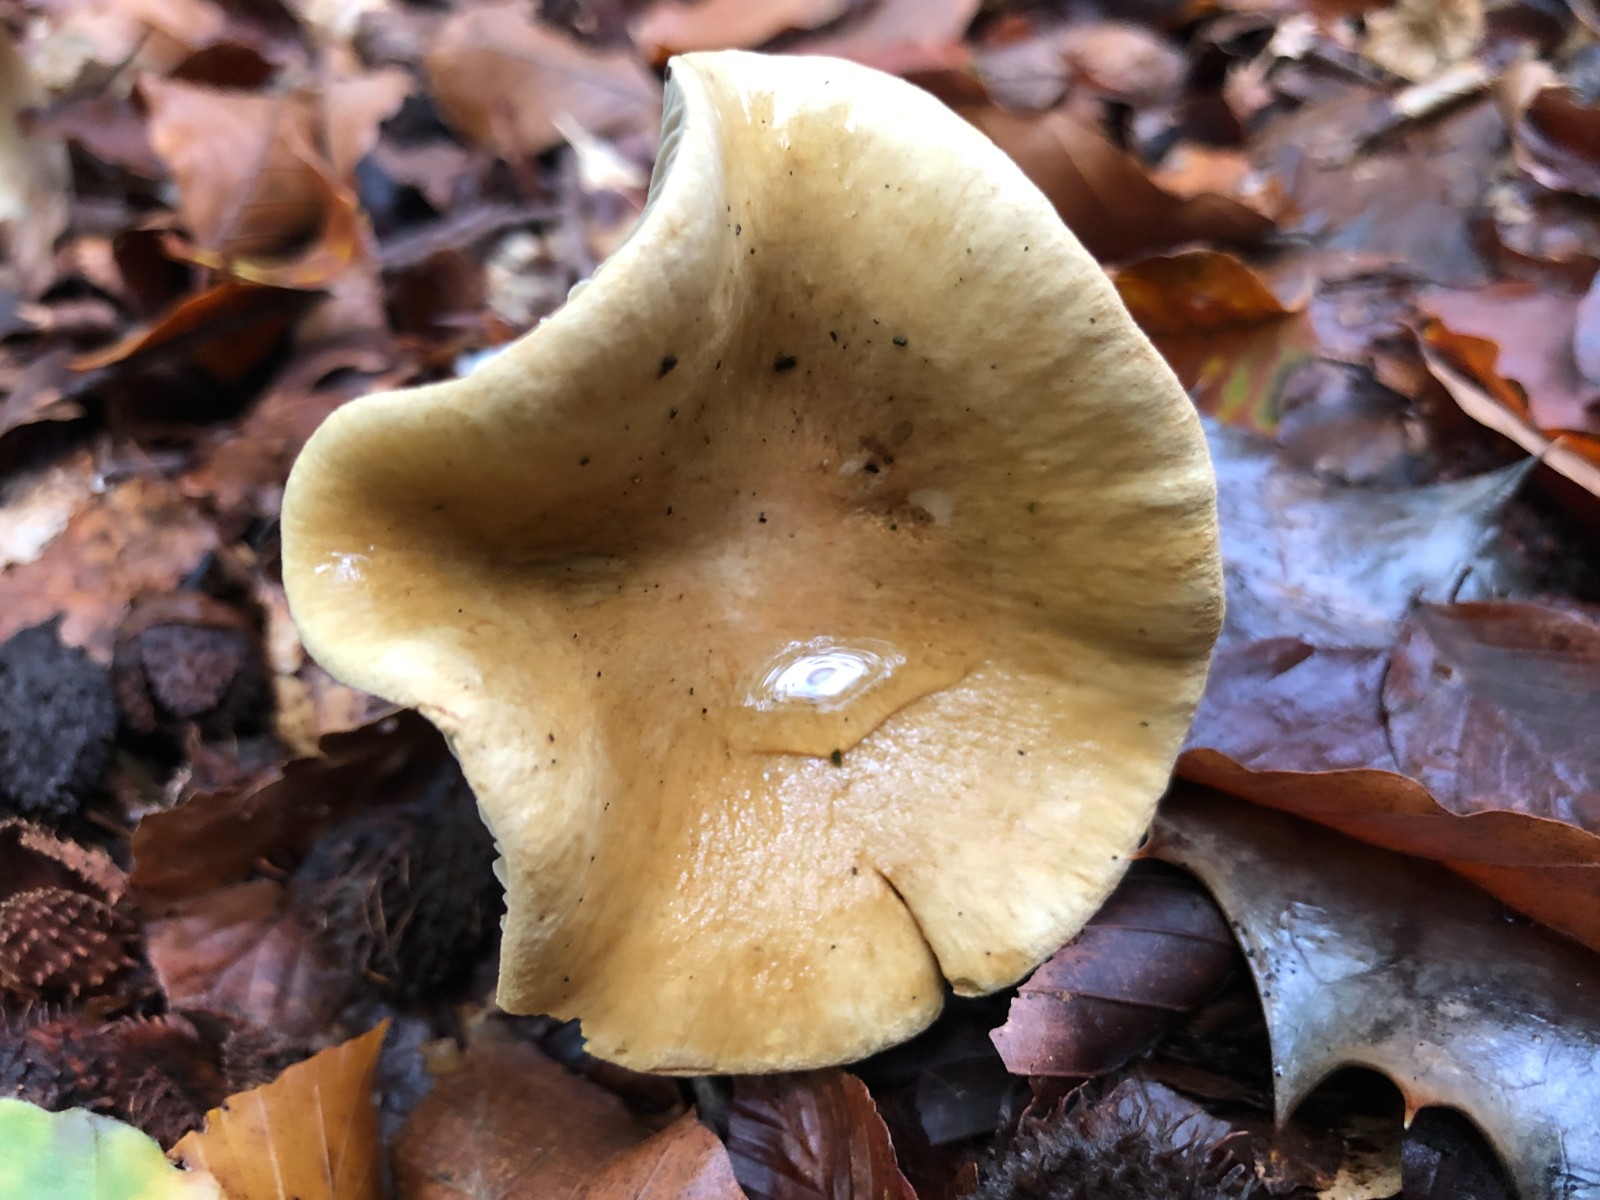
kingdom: Fungi
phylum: Basidiomycota
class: Agaricomycetes
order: Agaricales
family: Cortinariaceae
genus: Cortinarius
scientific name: Cortinarius subtortus
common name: olivengul slørhat
